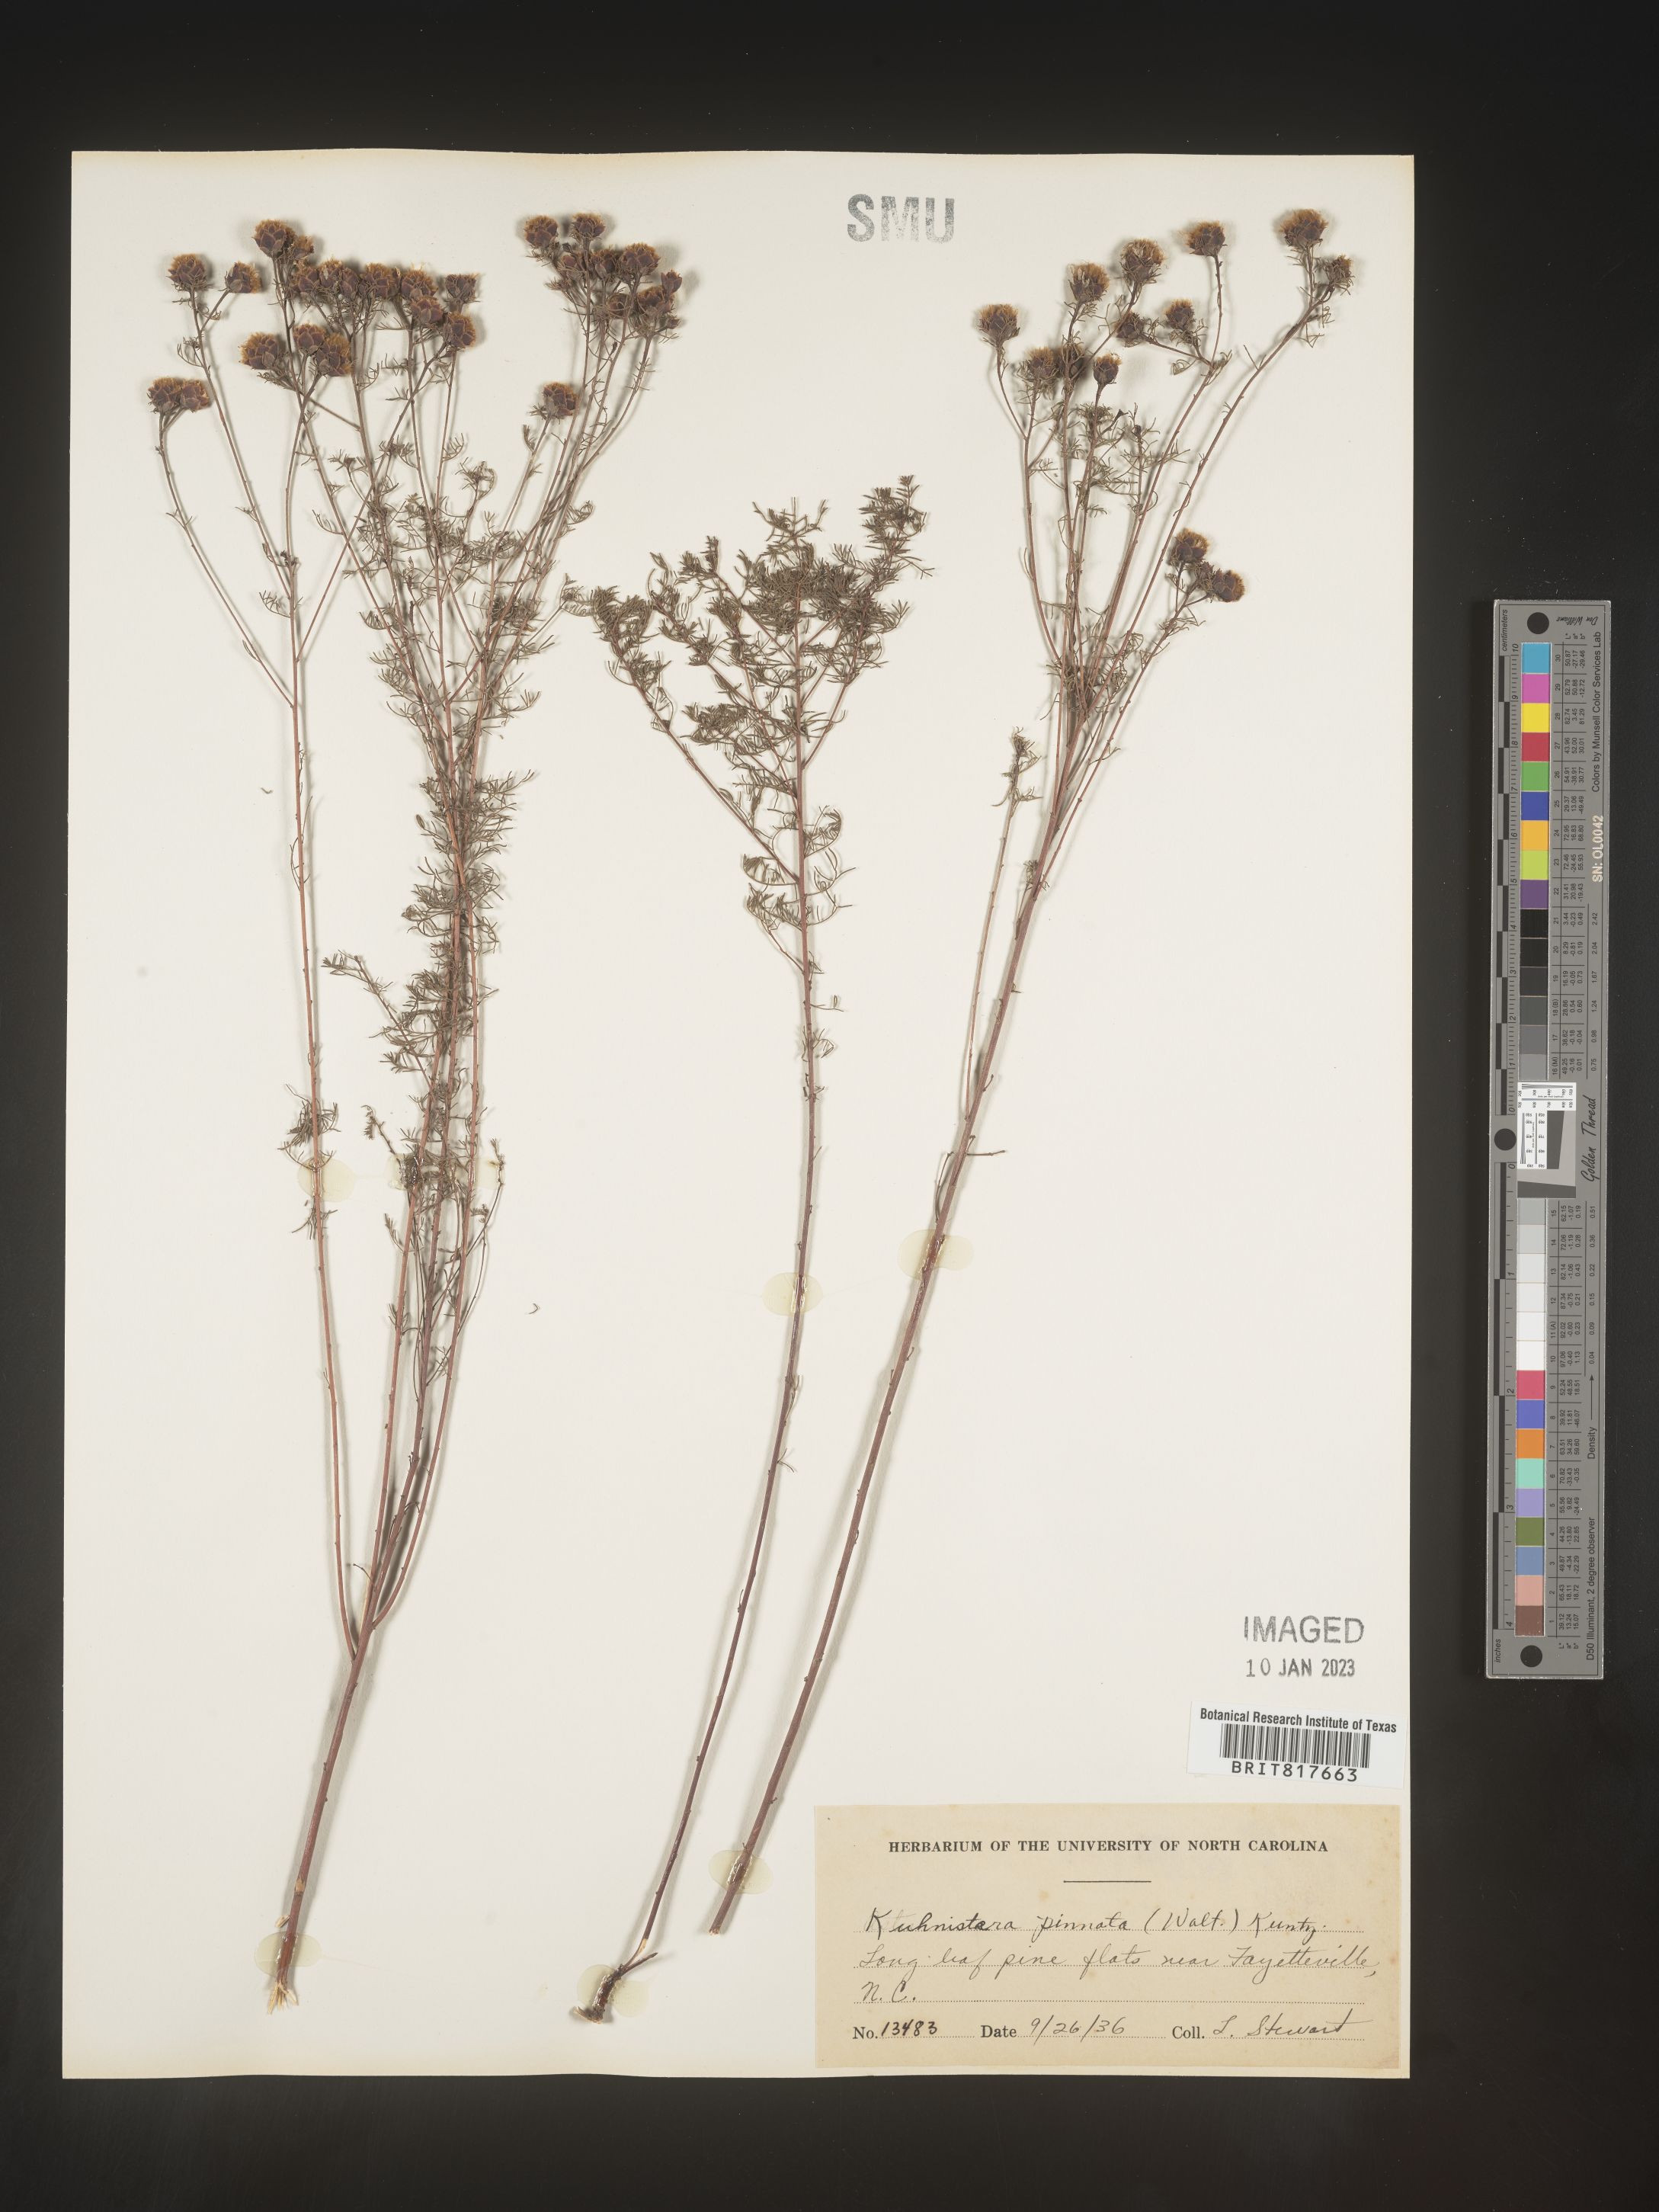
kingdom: Plantae
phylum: Tracheophyta
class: Magnoliopsida
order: Fabales
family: Fabaceae
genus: Dalea
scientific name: Dalea pinnata
